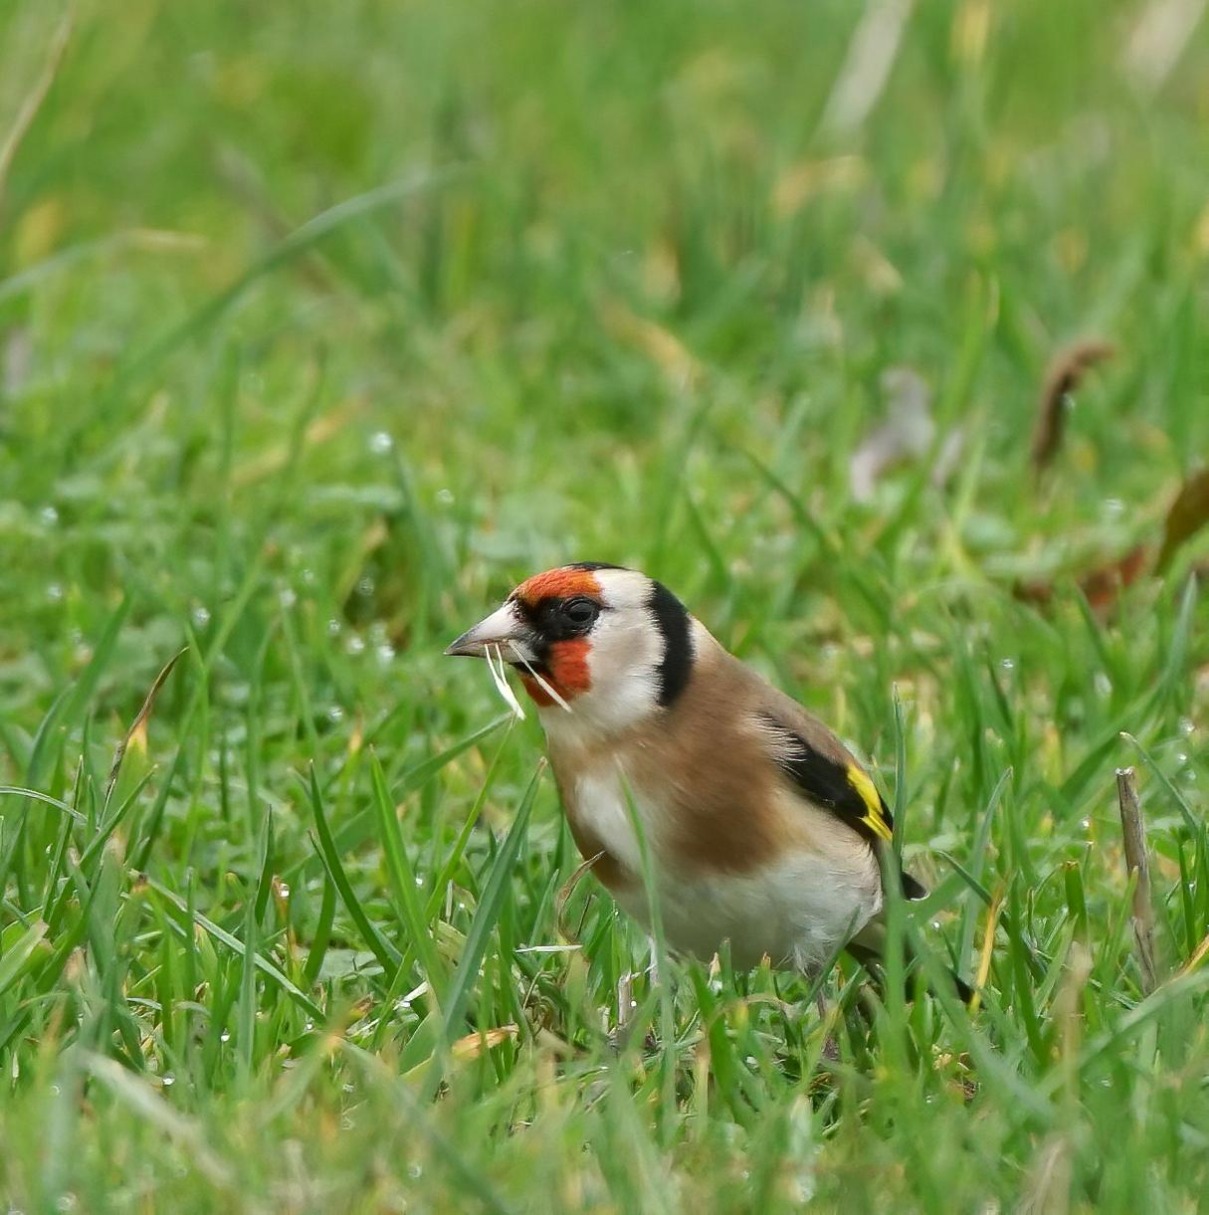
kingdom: Animalia
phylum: Chordata
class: Aves
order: Passeriformes
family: Fringillidae
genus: Carduelis
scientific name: Carduelis carduelis
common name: Stillits
